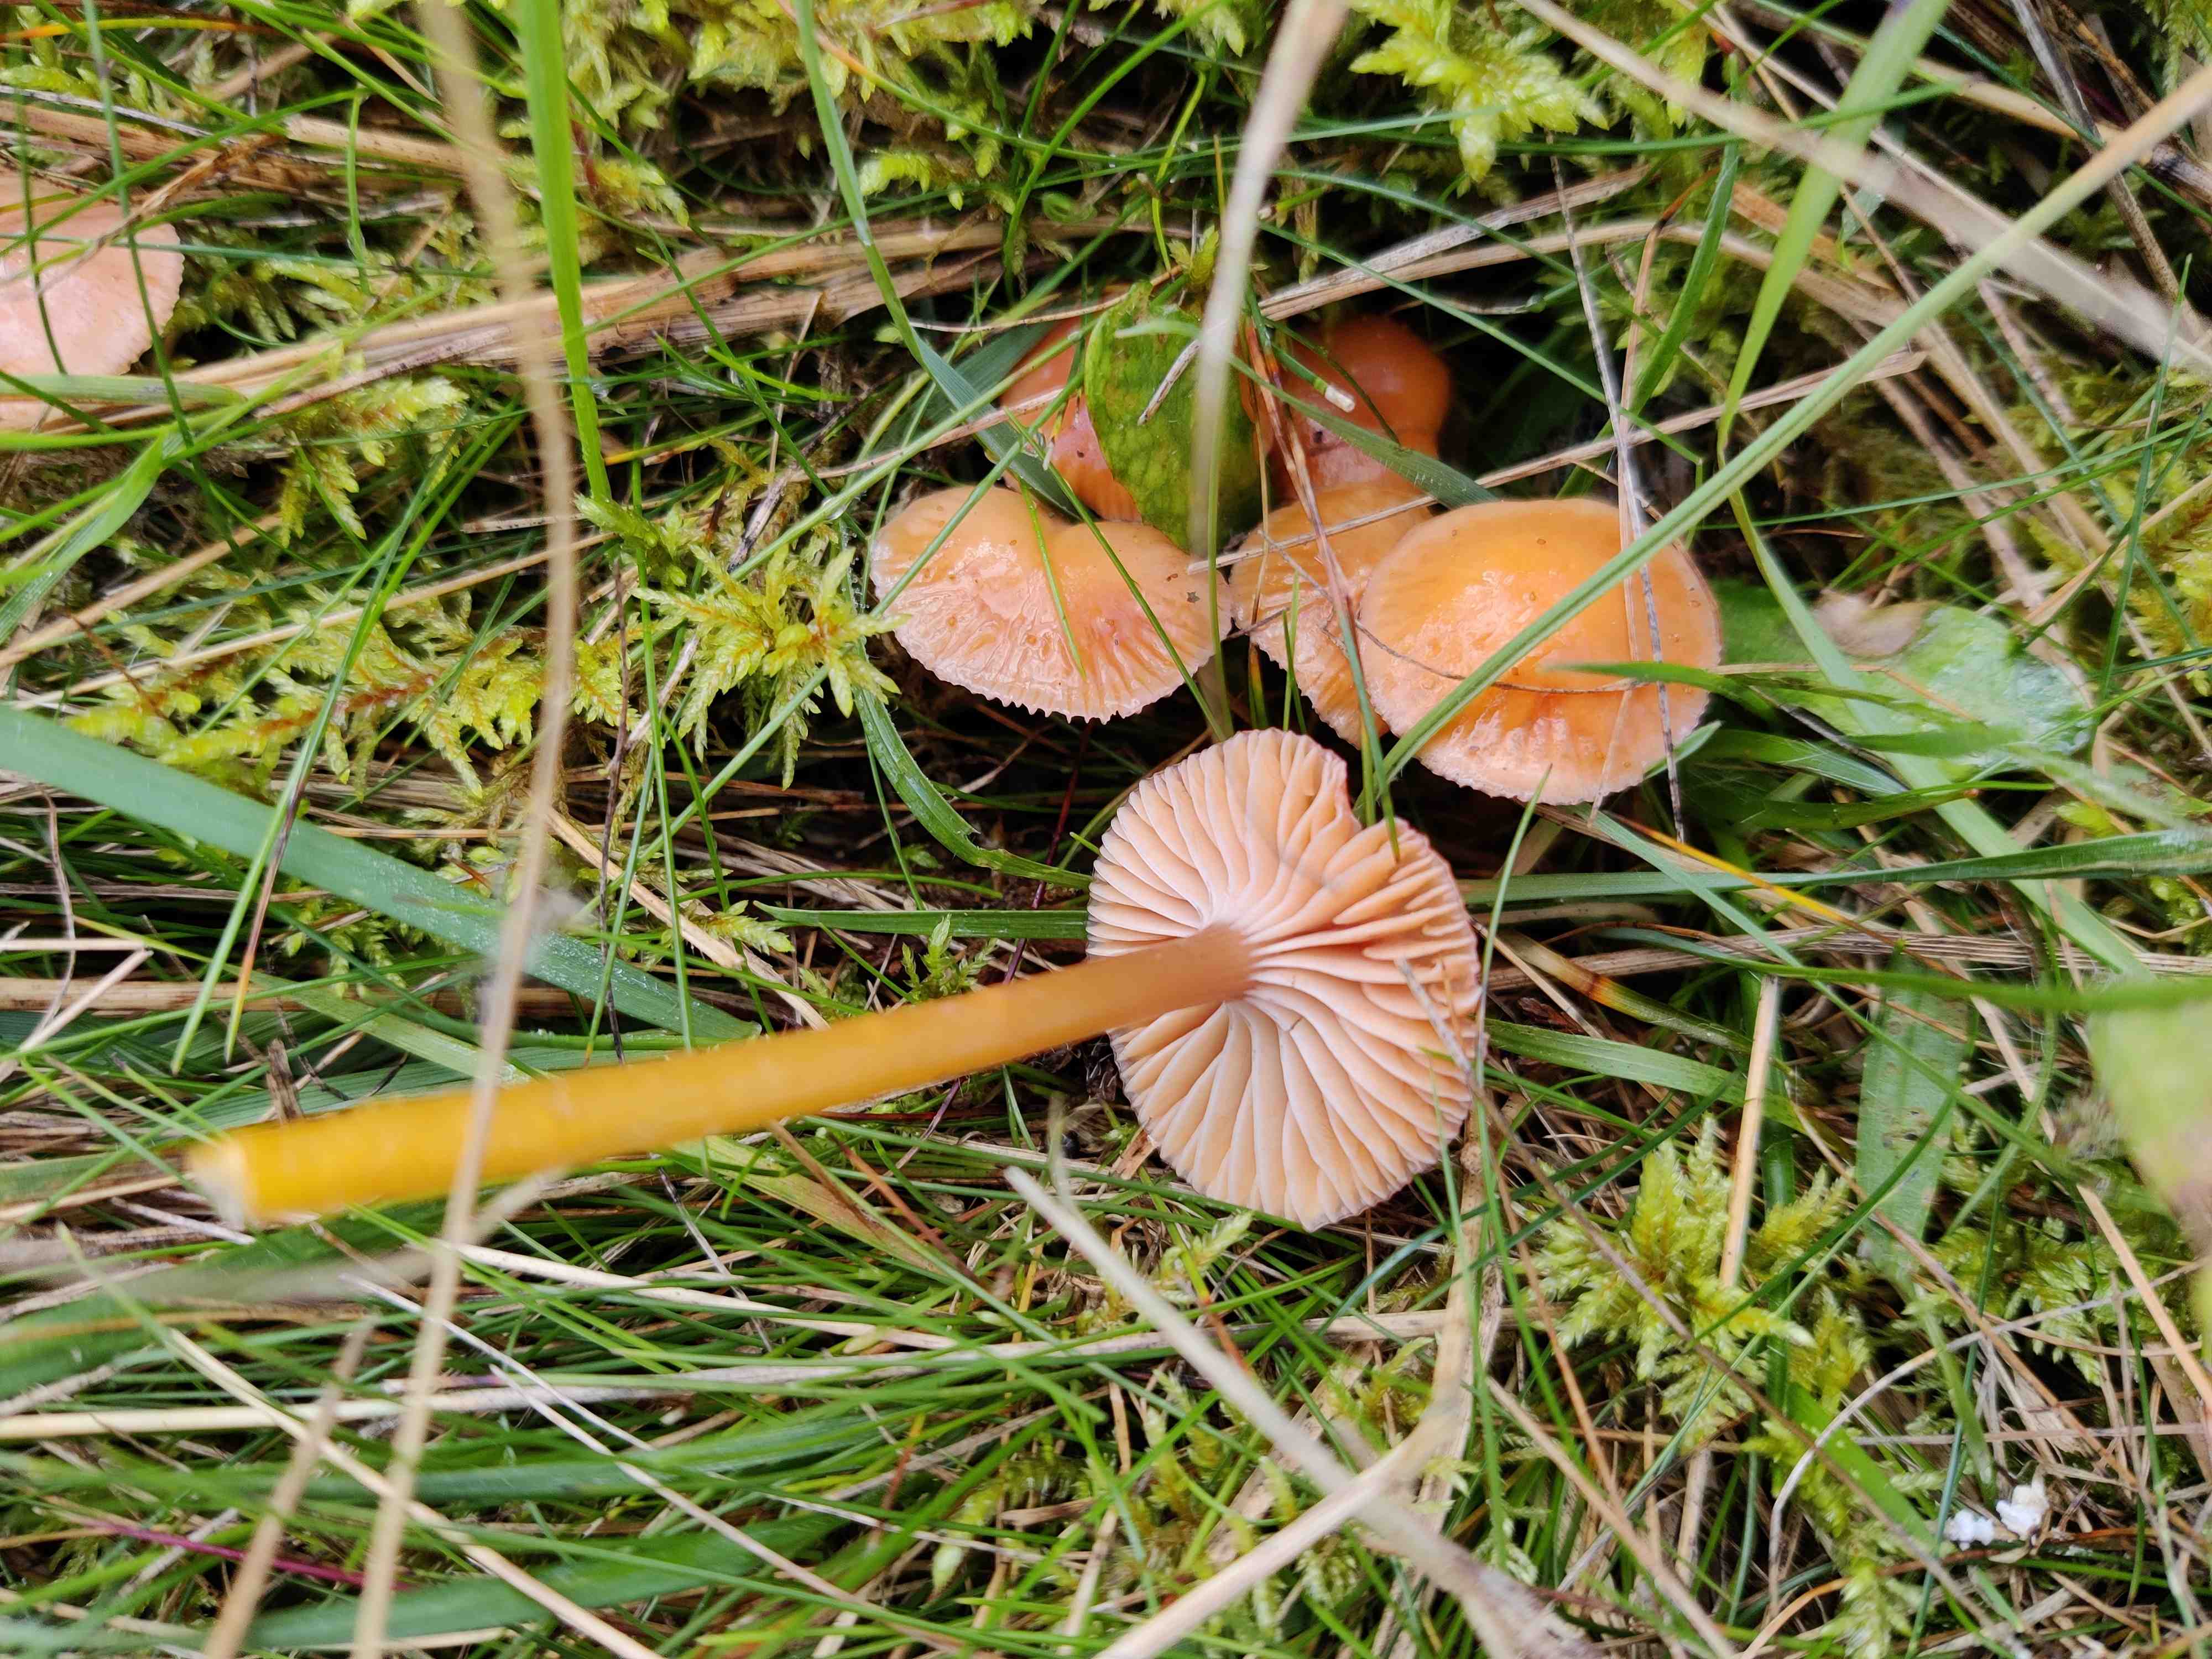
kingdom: Fungi
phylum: Basidiomycota
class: Agaricomycetes
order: Agaricales
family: Hygrophoraceae
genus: Gliophorus
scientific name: Gliophorus laetus
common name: brusk-vokshat
